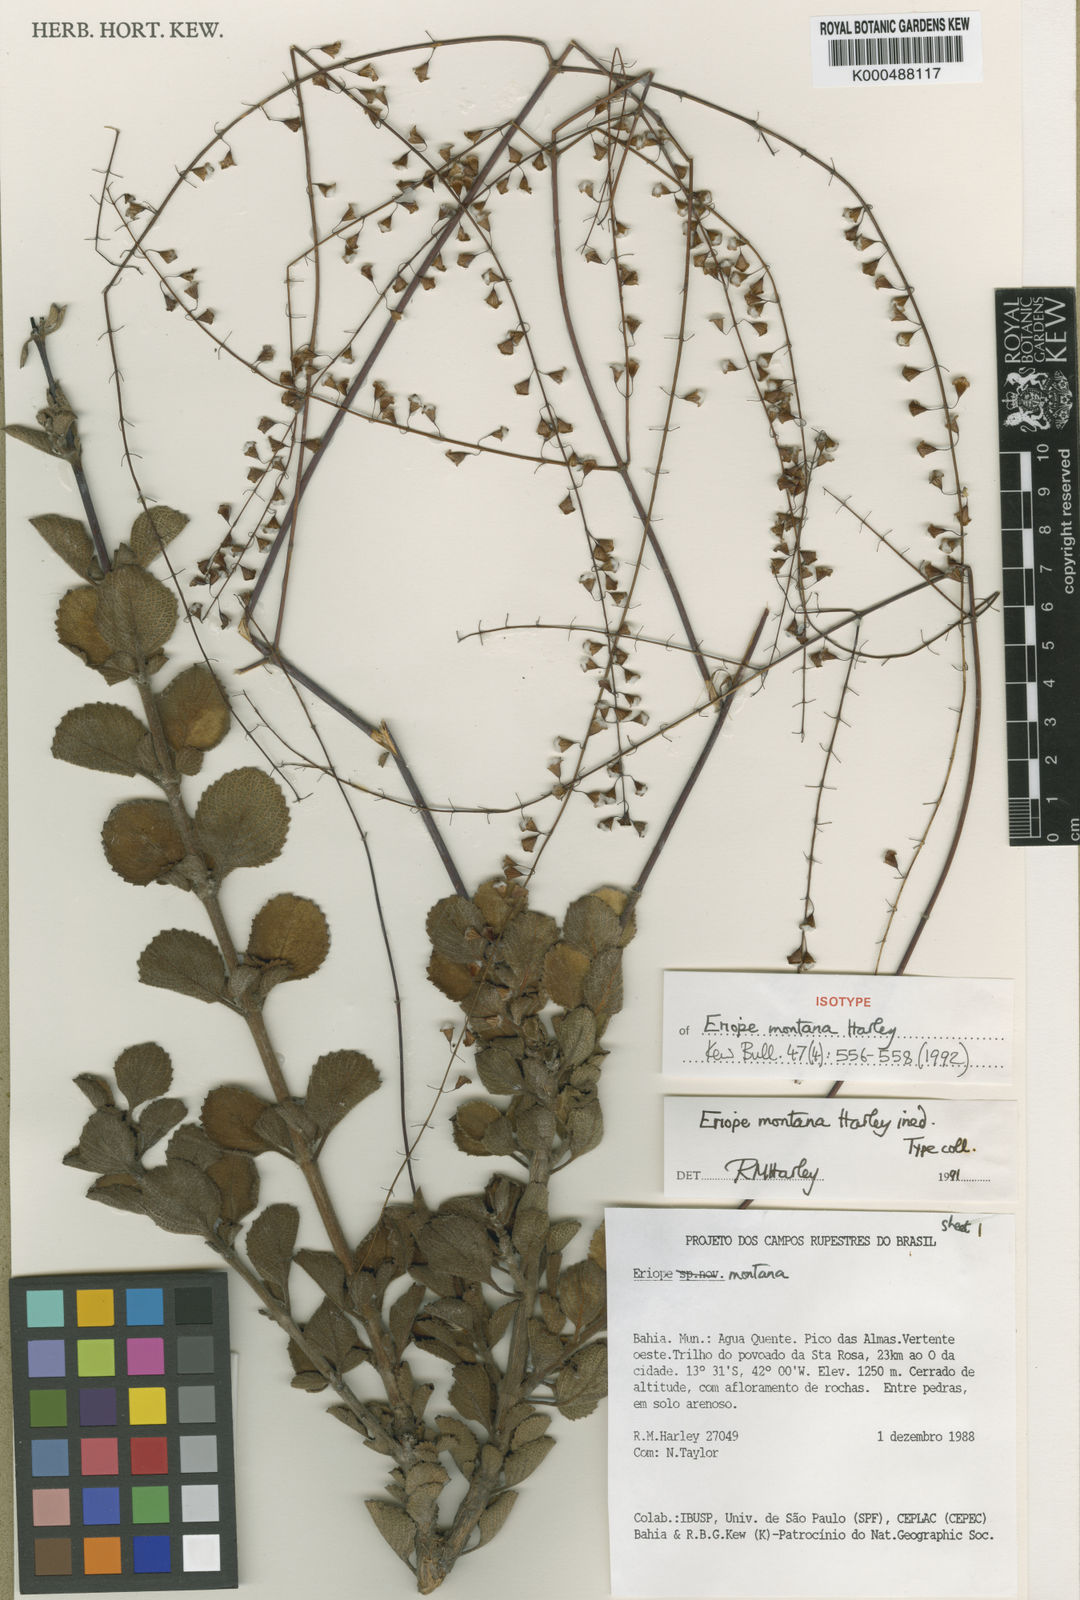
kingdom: Plantae
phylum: Tracheophyta
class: Magnoliopsida
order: Lamiales
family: Lamiaceae
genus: Eriope
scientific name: Eriope montana
